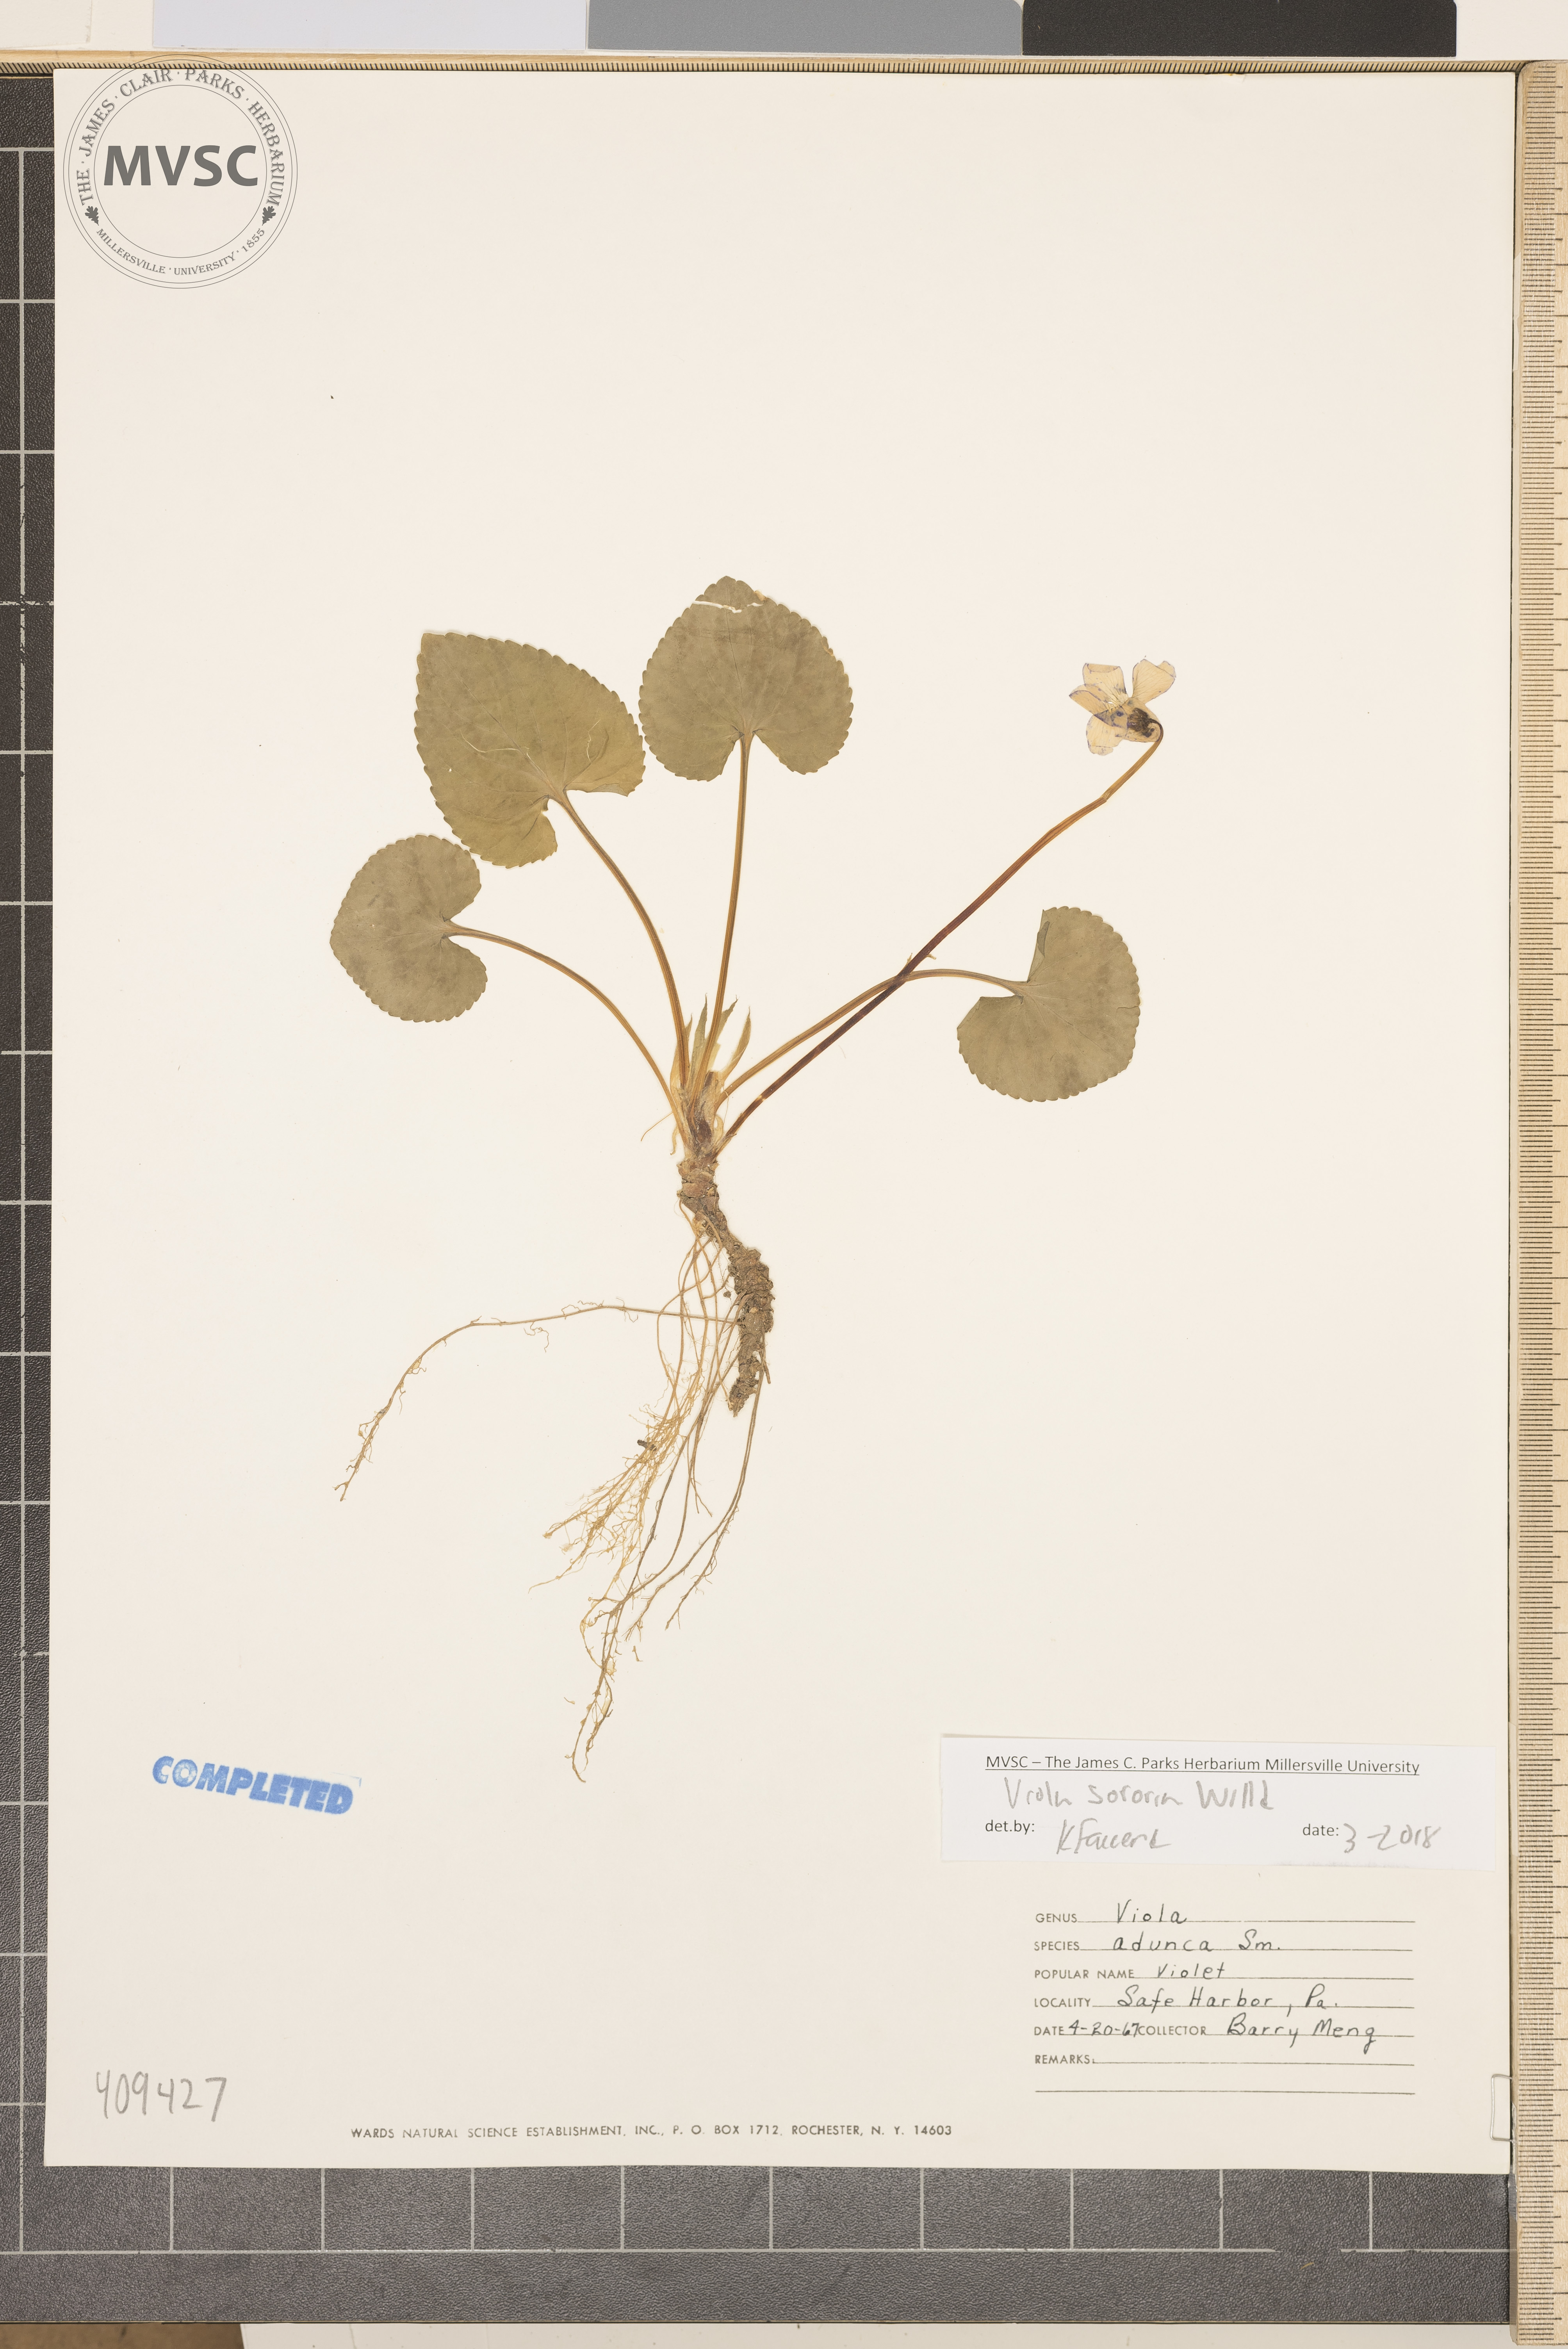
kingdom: Plantae
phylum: Tracheophyta
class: Magnoliopsida
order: Malpighiales
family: Violaceae
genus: Viola
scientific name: Viola sororia
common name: Dooryard violet
